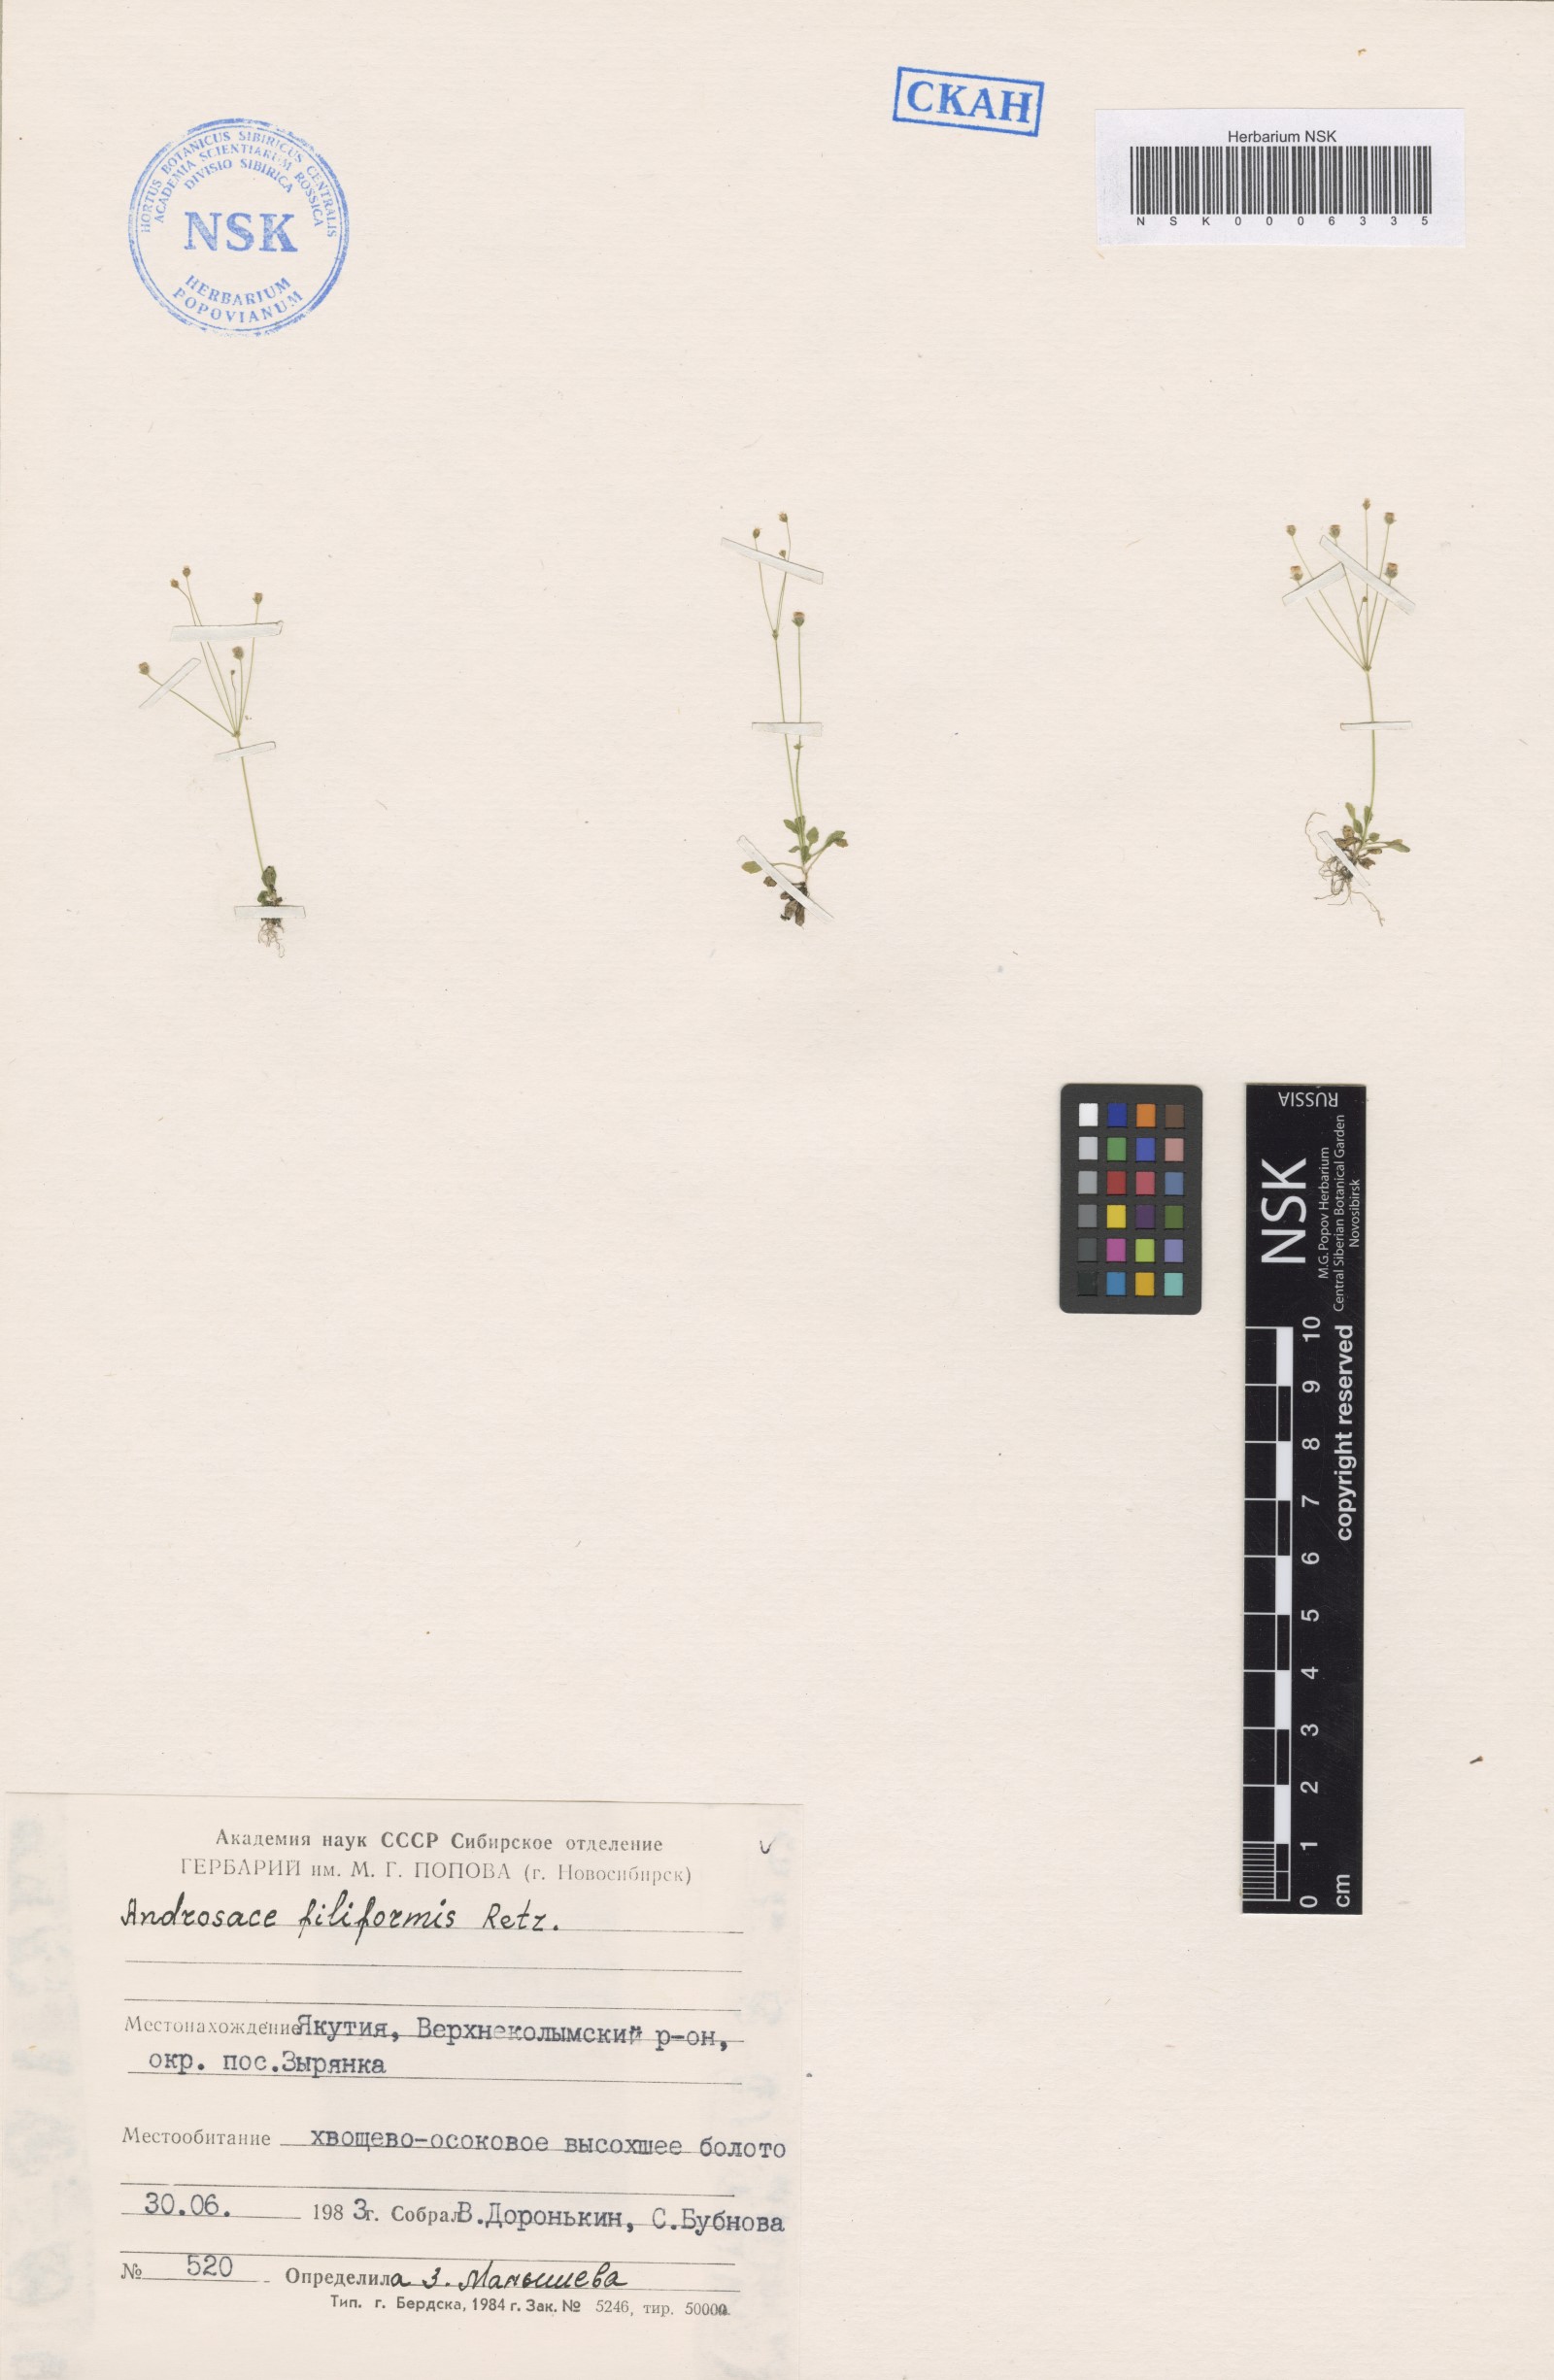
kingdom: Plantae
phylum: Tracheophyta
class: Magnoliopsida
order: Ericales
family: Primulaceae
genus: Androsace
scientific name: Androsace filiformis
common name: Filiform rock jasmine
